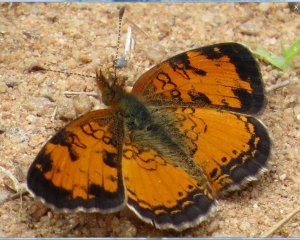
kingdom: Animalia
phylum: Arthropoda
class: Insecta
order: Lepidoptera
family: Nymphalidae
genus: Phyciodes
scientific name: Phyciodes tharos
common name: Northern Crescent
